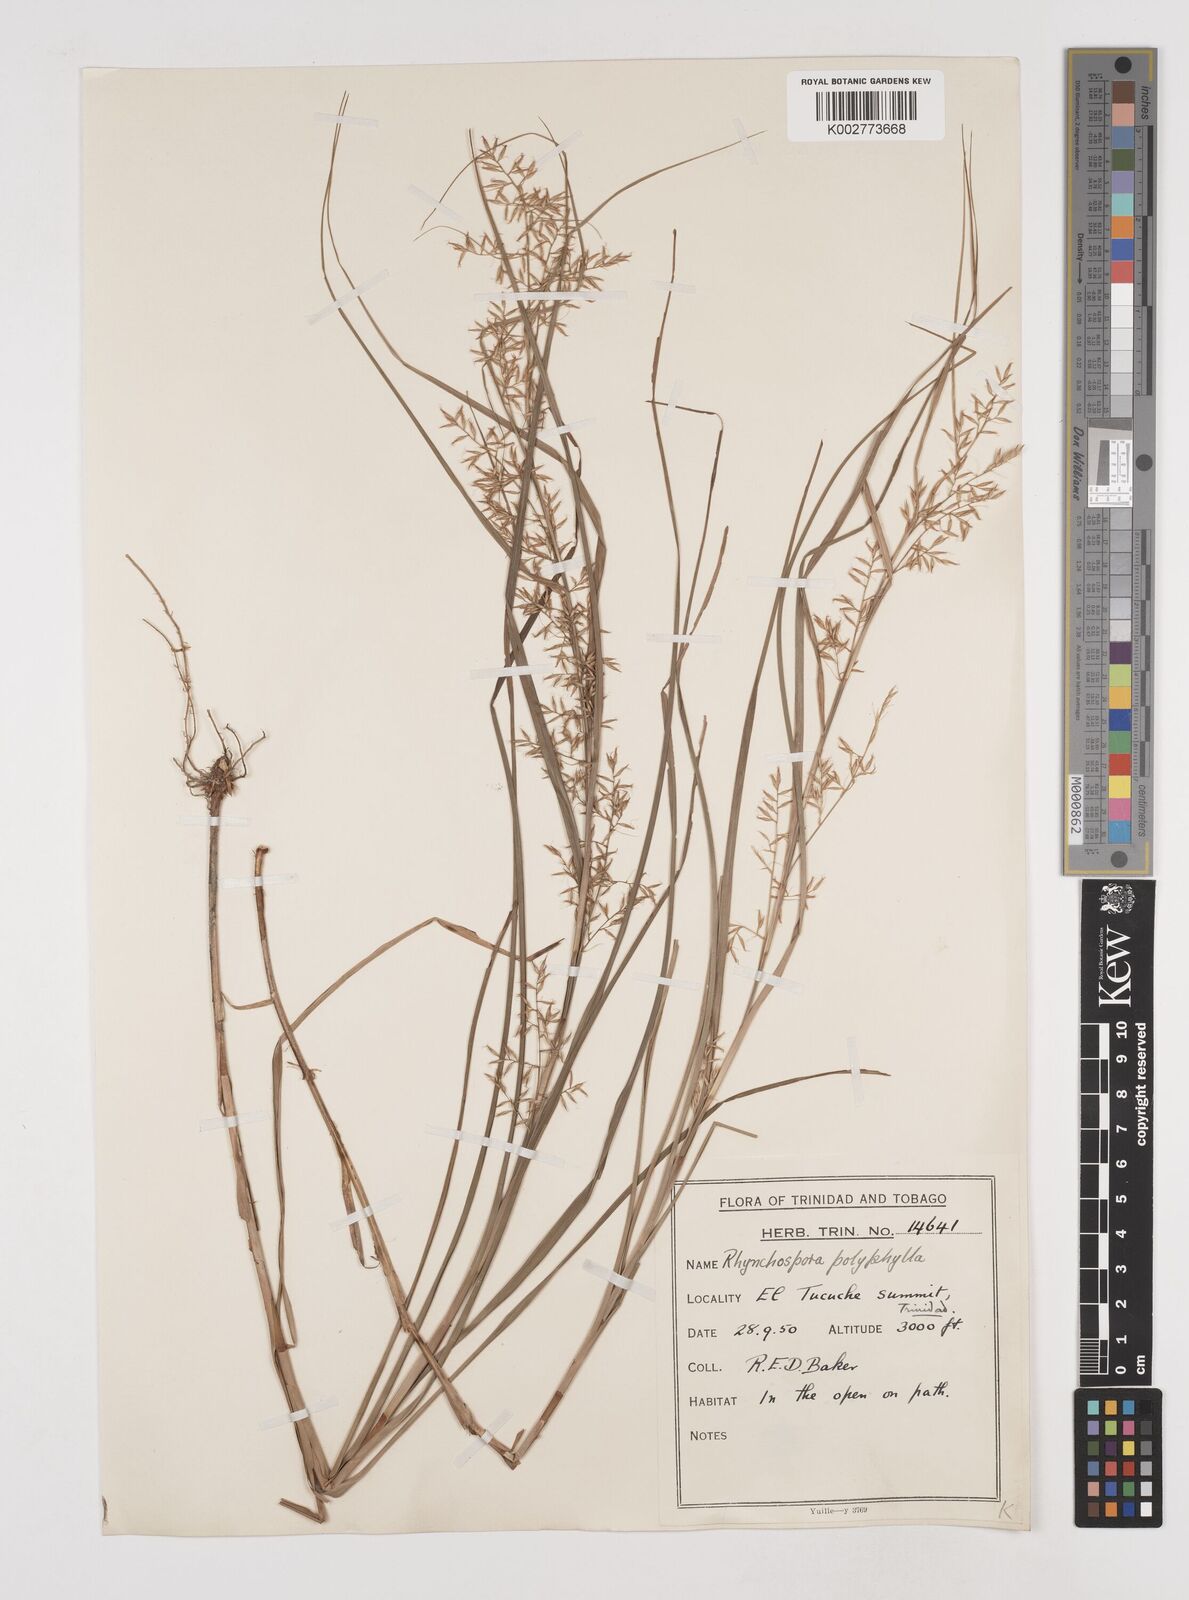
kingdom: Plantae
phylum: Tracheophyta
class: Liliopsida
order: Poales
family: Cyperaceae
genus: Rhynchospora
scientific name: Rhynchospora polyphylla
